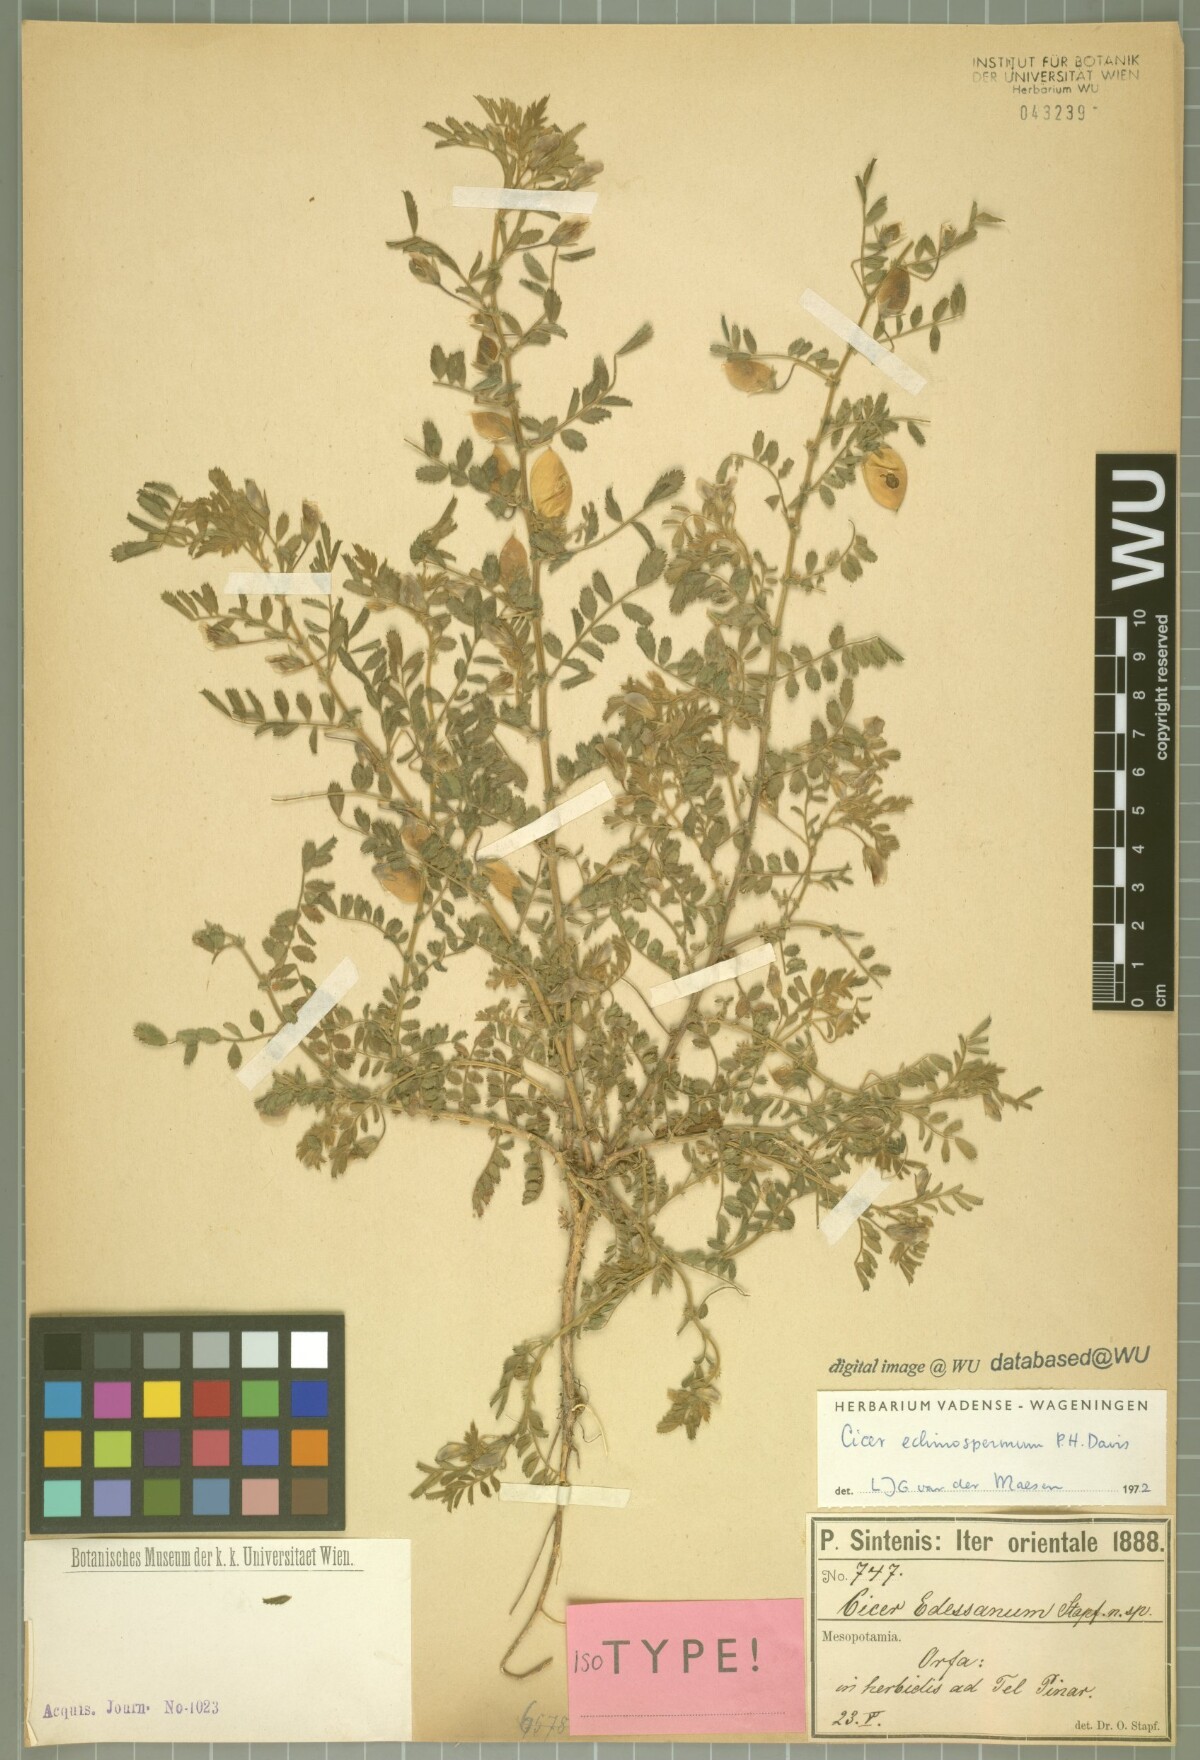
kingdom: Plantae
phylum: Tracheophyta
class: Magnoliopsida
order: Fabales
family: Fabaceae
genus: Cicer
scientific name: Cicer echinospermum
